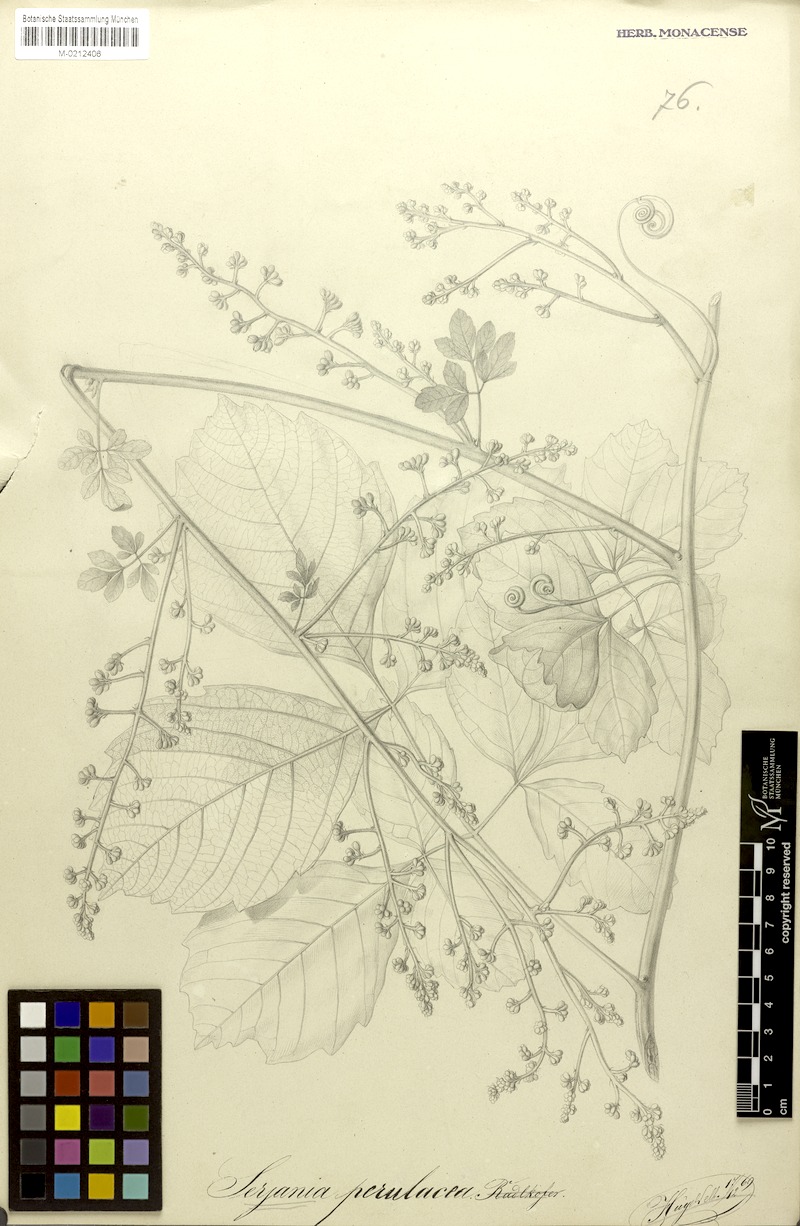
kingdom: Plantae
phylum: Tracheophyta
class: Magnoliopsida
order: Sapindales
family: Sapindaceae
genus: Serjania
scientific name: Serjania perulacea
